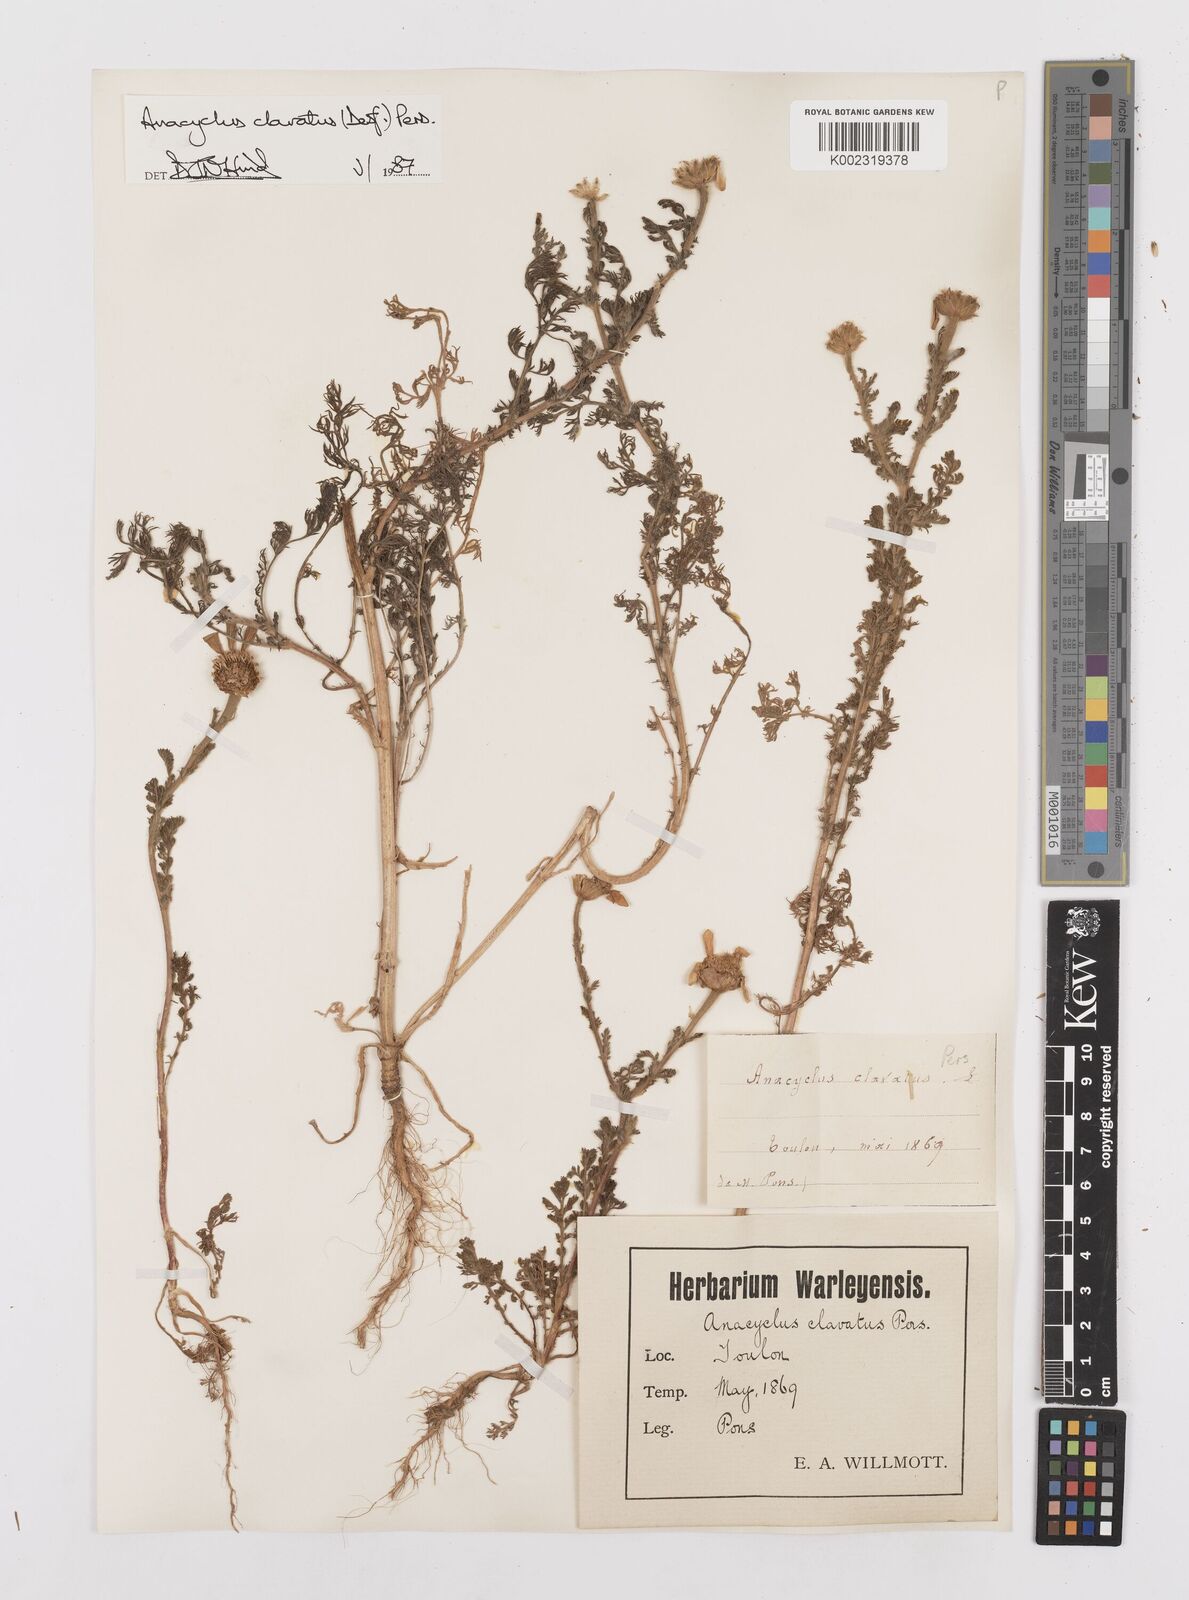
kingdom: Plantae
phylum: Tracheophyta
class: Magnoliopsida
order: Asterales
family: Asteraceae
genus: Anacyclus
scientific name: Anacyclus clavatus
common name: Whitebuttons
